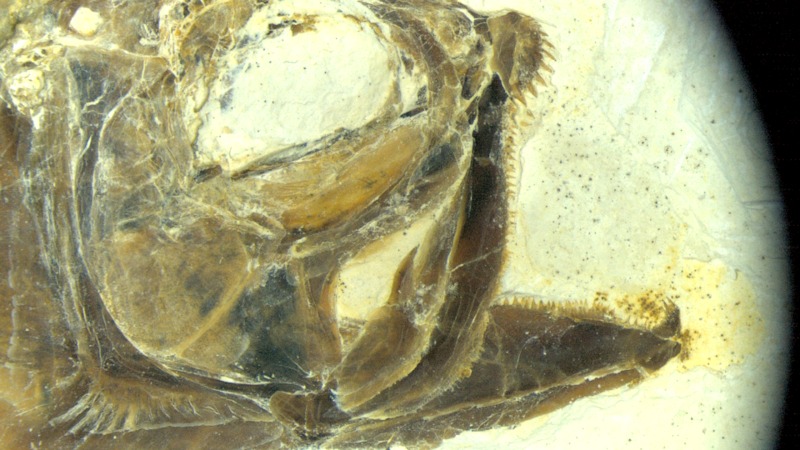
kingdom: Animalia
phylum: Chordata
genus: Thrissops
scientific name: Thrissops formosus
